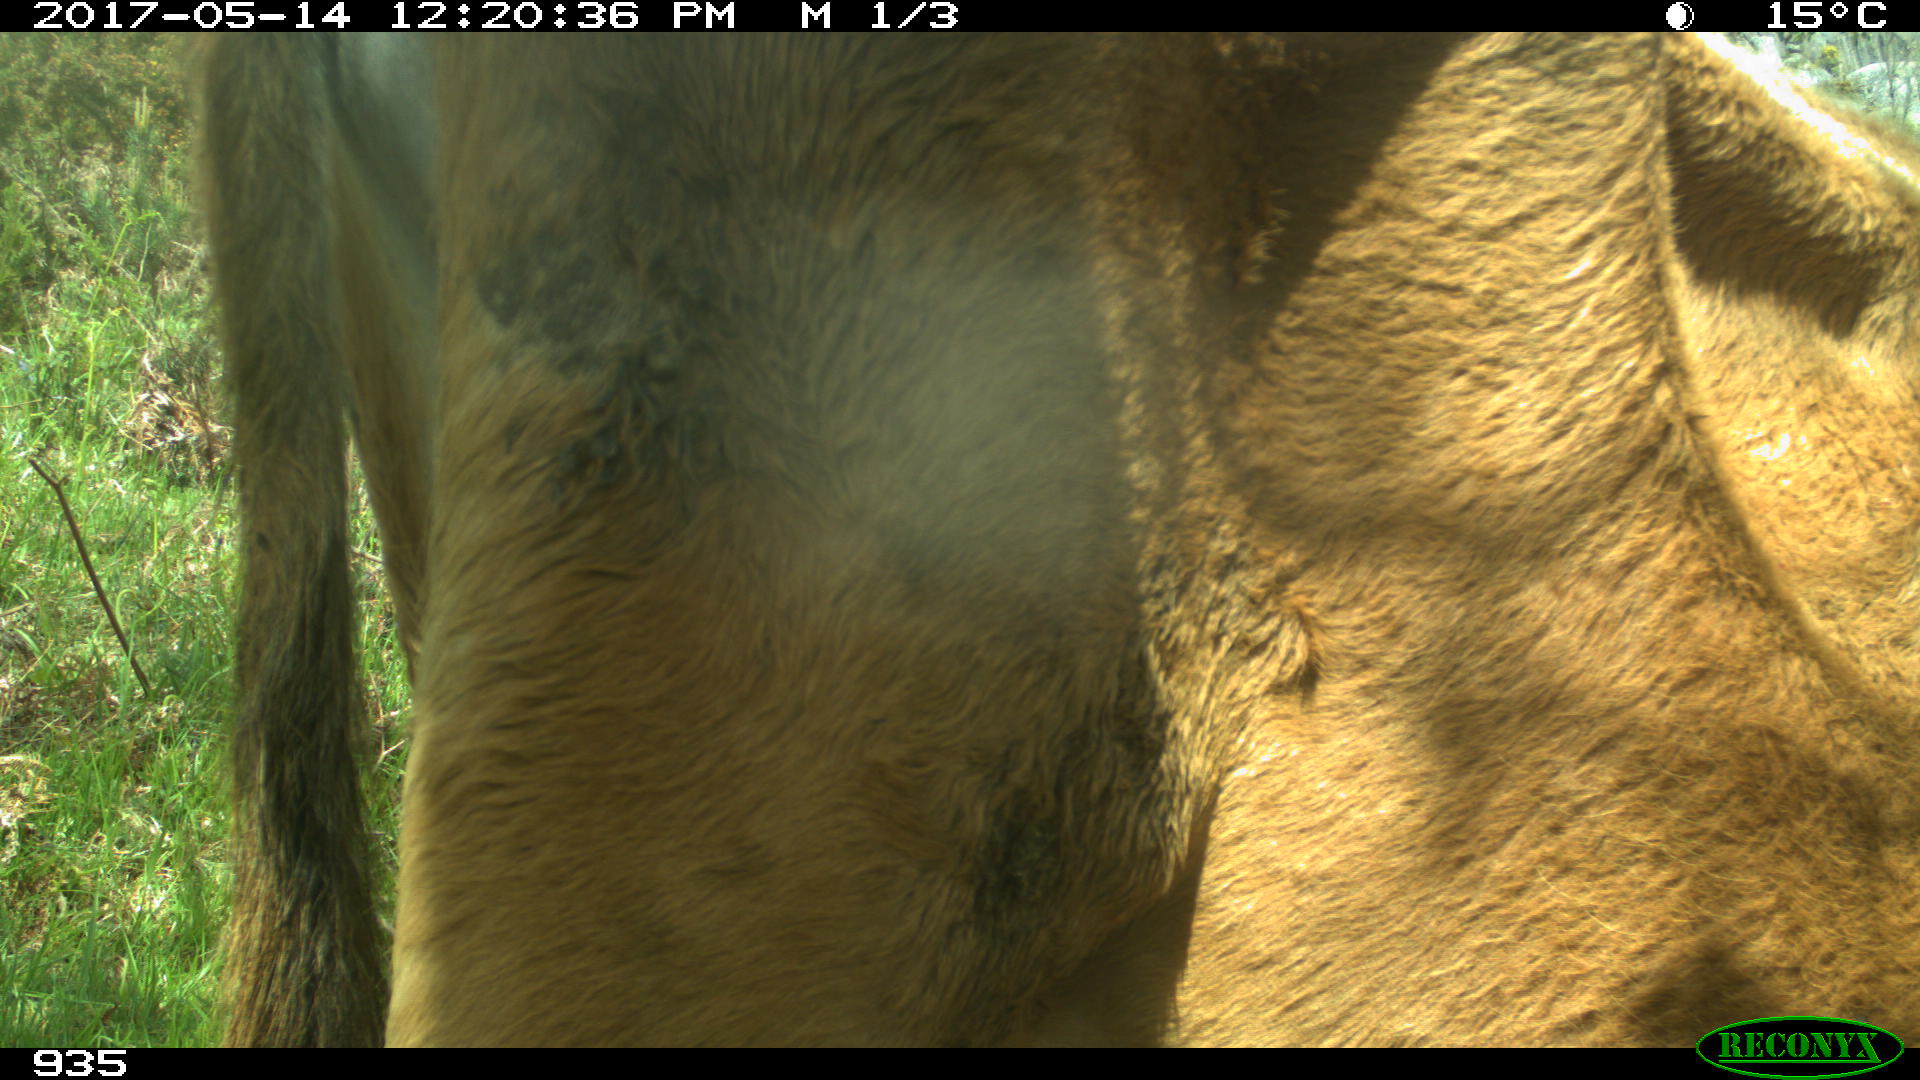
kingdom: Animalia
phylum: Chordata
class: Mammalia
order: Artiodactyla
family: Bovidae
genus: Bos
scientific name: Bos taurus
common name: Domesticated cattle
